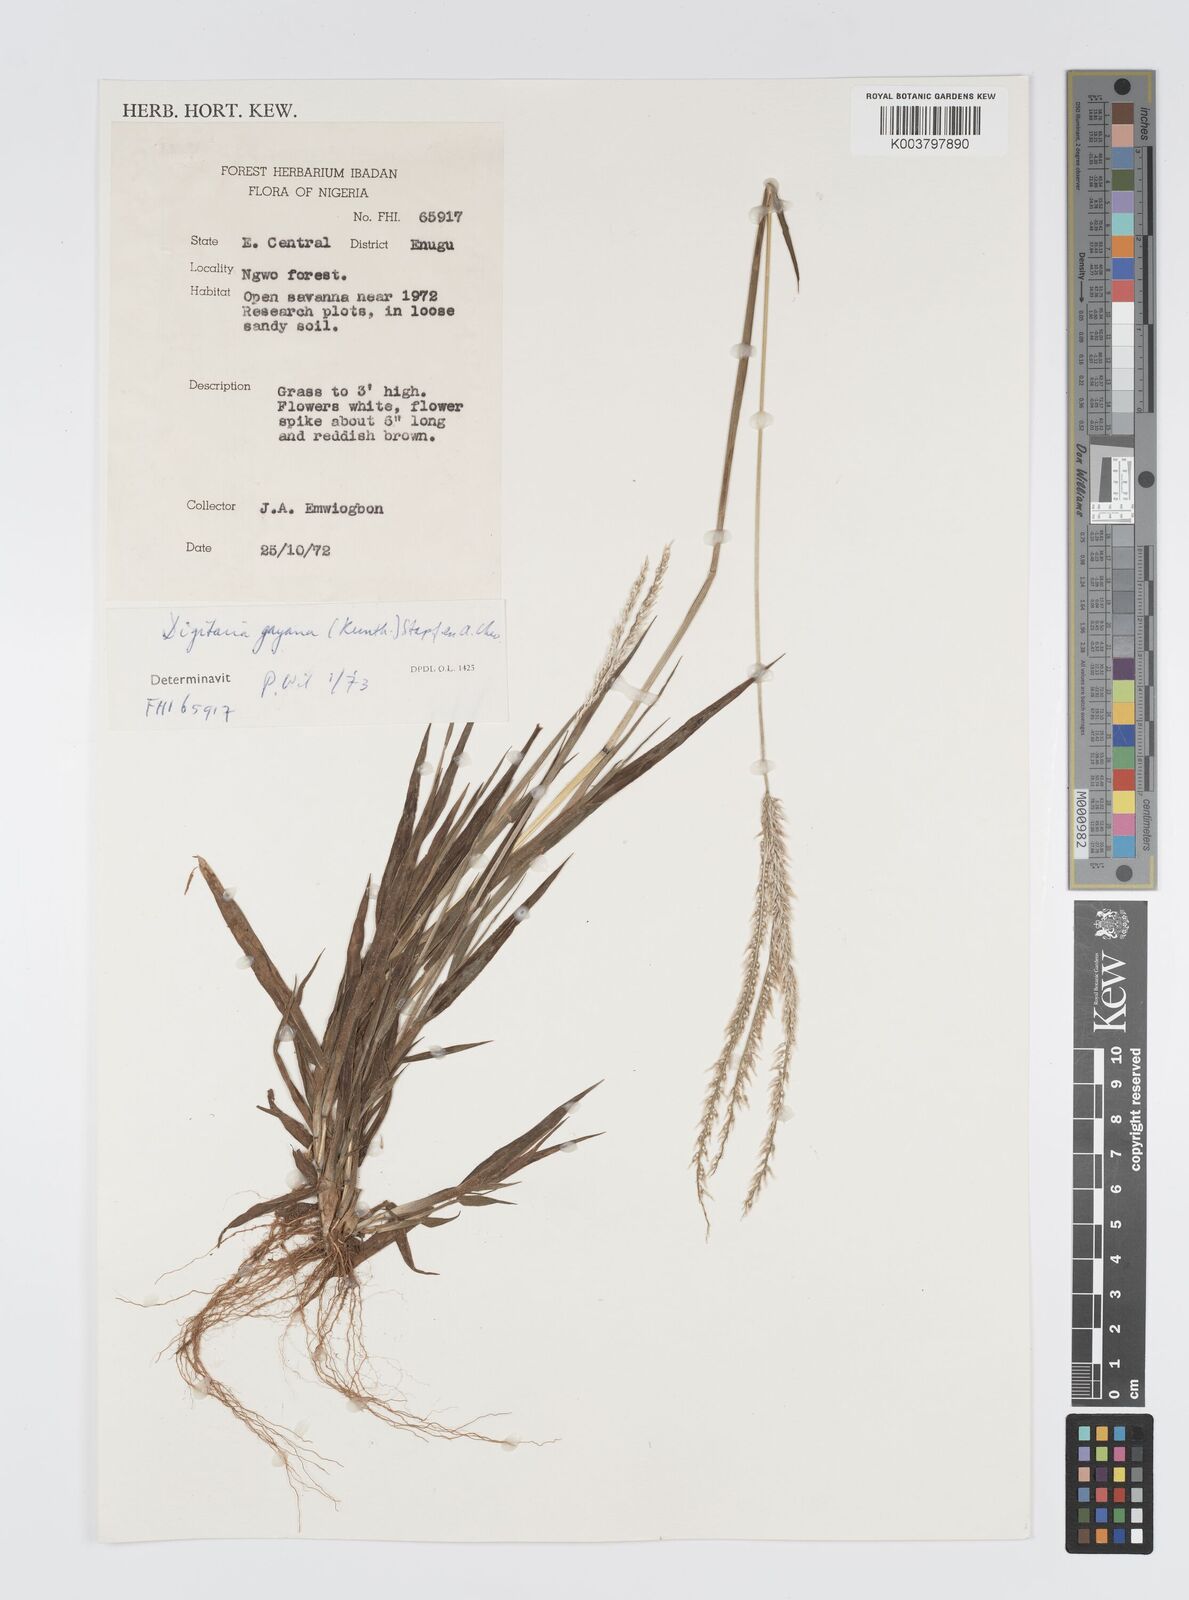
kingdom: Plantae
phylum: Tracheophyta
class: Liliopsida
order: Poales
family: Poaceae
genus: Digitaria
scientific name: Digitaria gayana
